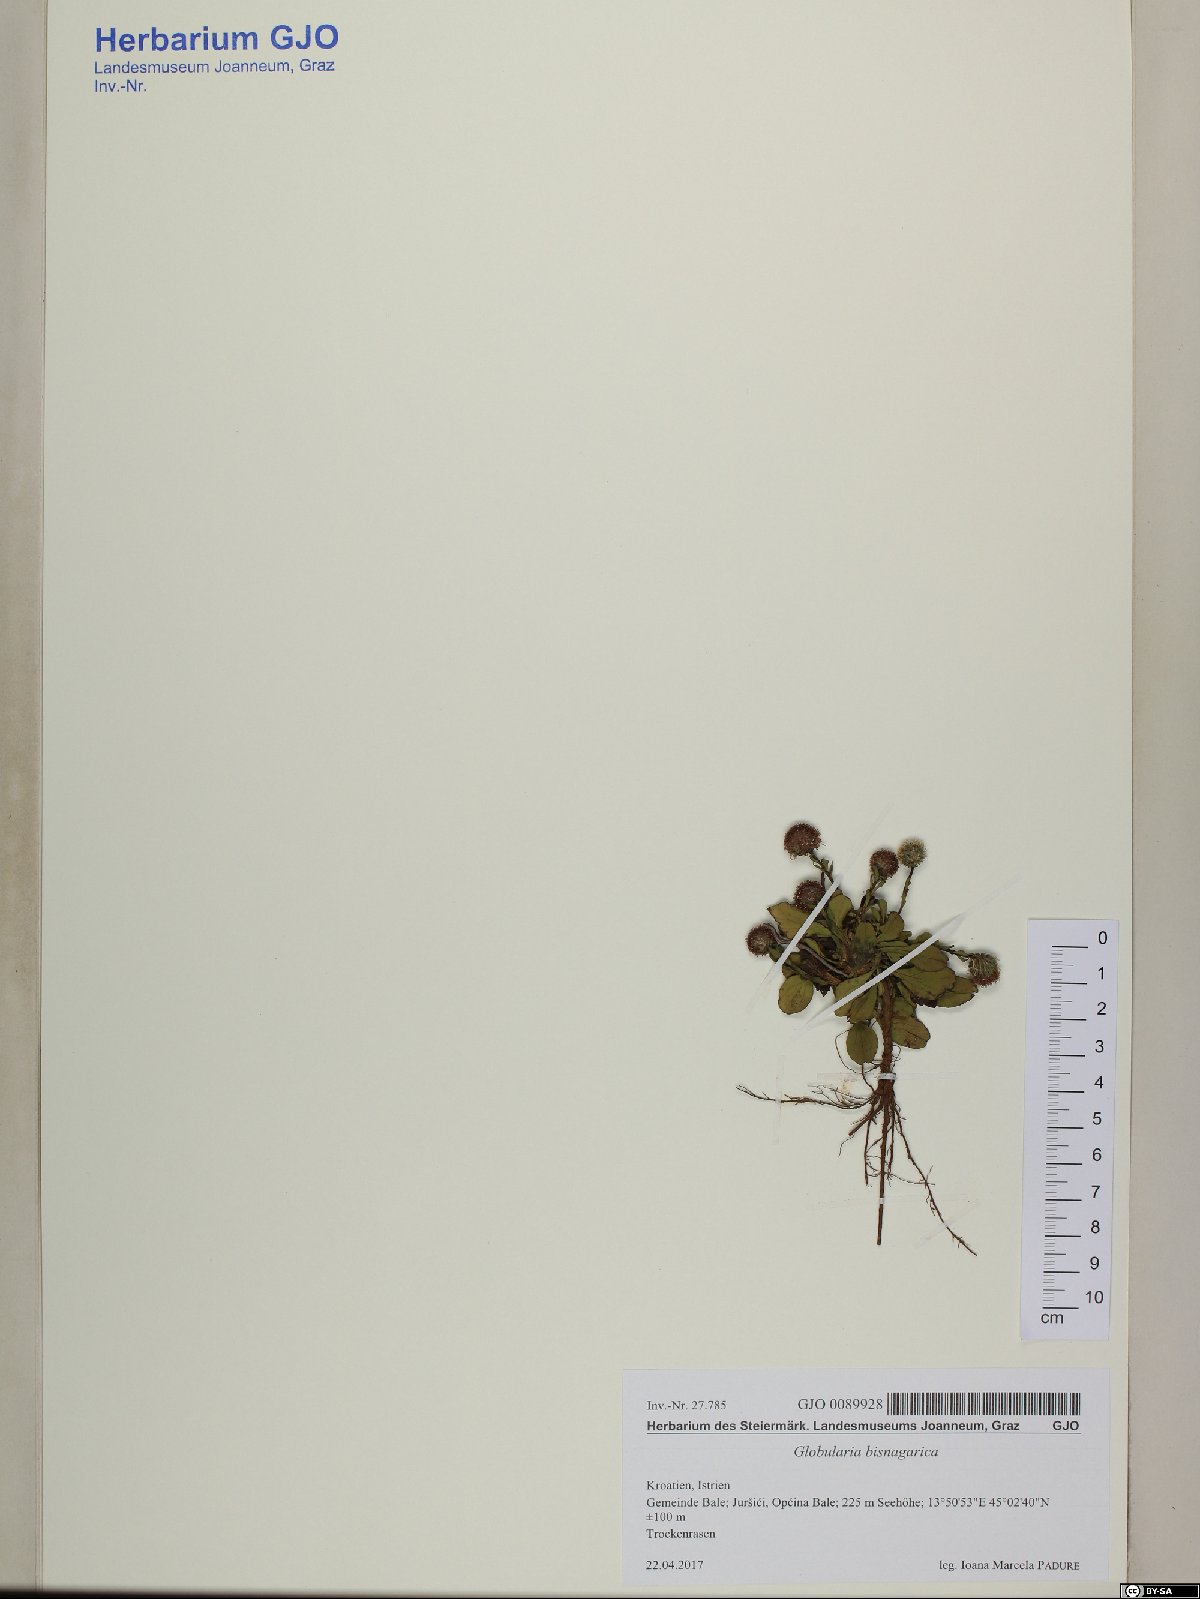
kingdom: Plantae
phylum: Tracheophyta
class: Magnoliopsida
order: Lamiales
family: Plantaginaceae
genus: Globularia
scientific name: Globularia bisnagarica
